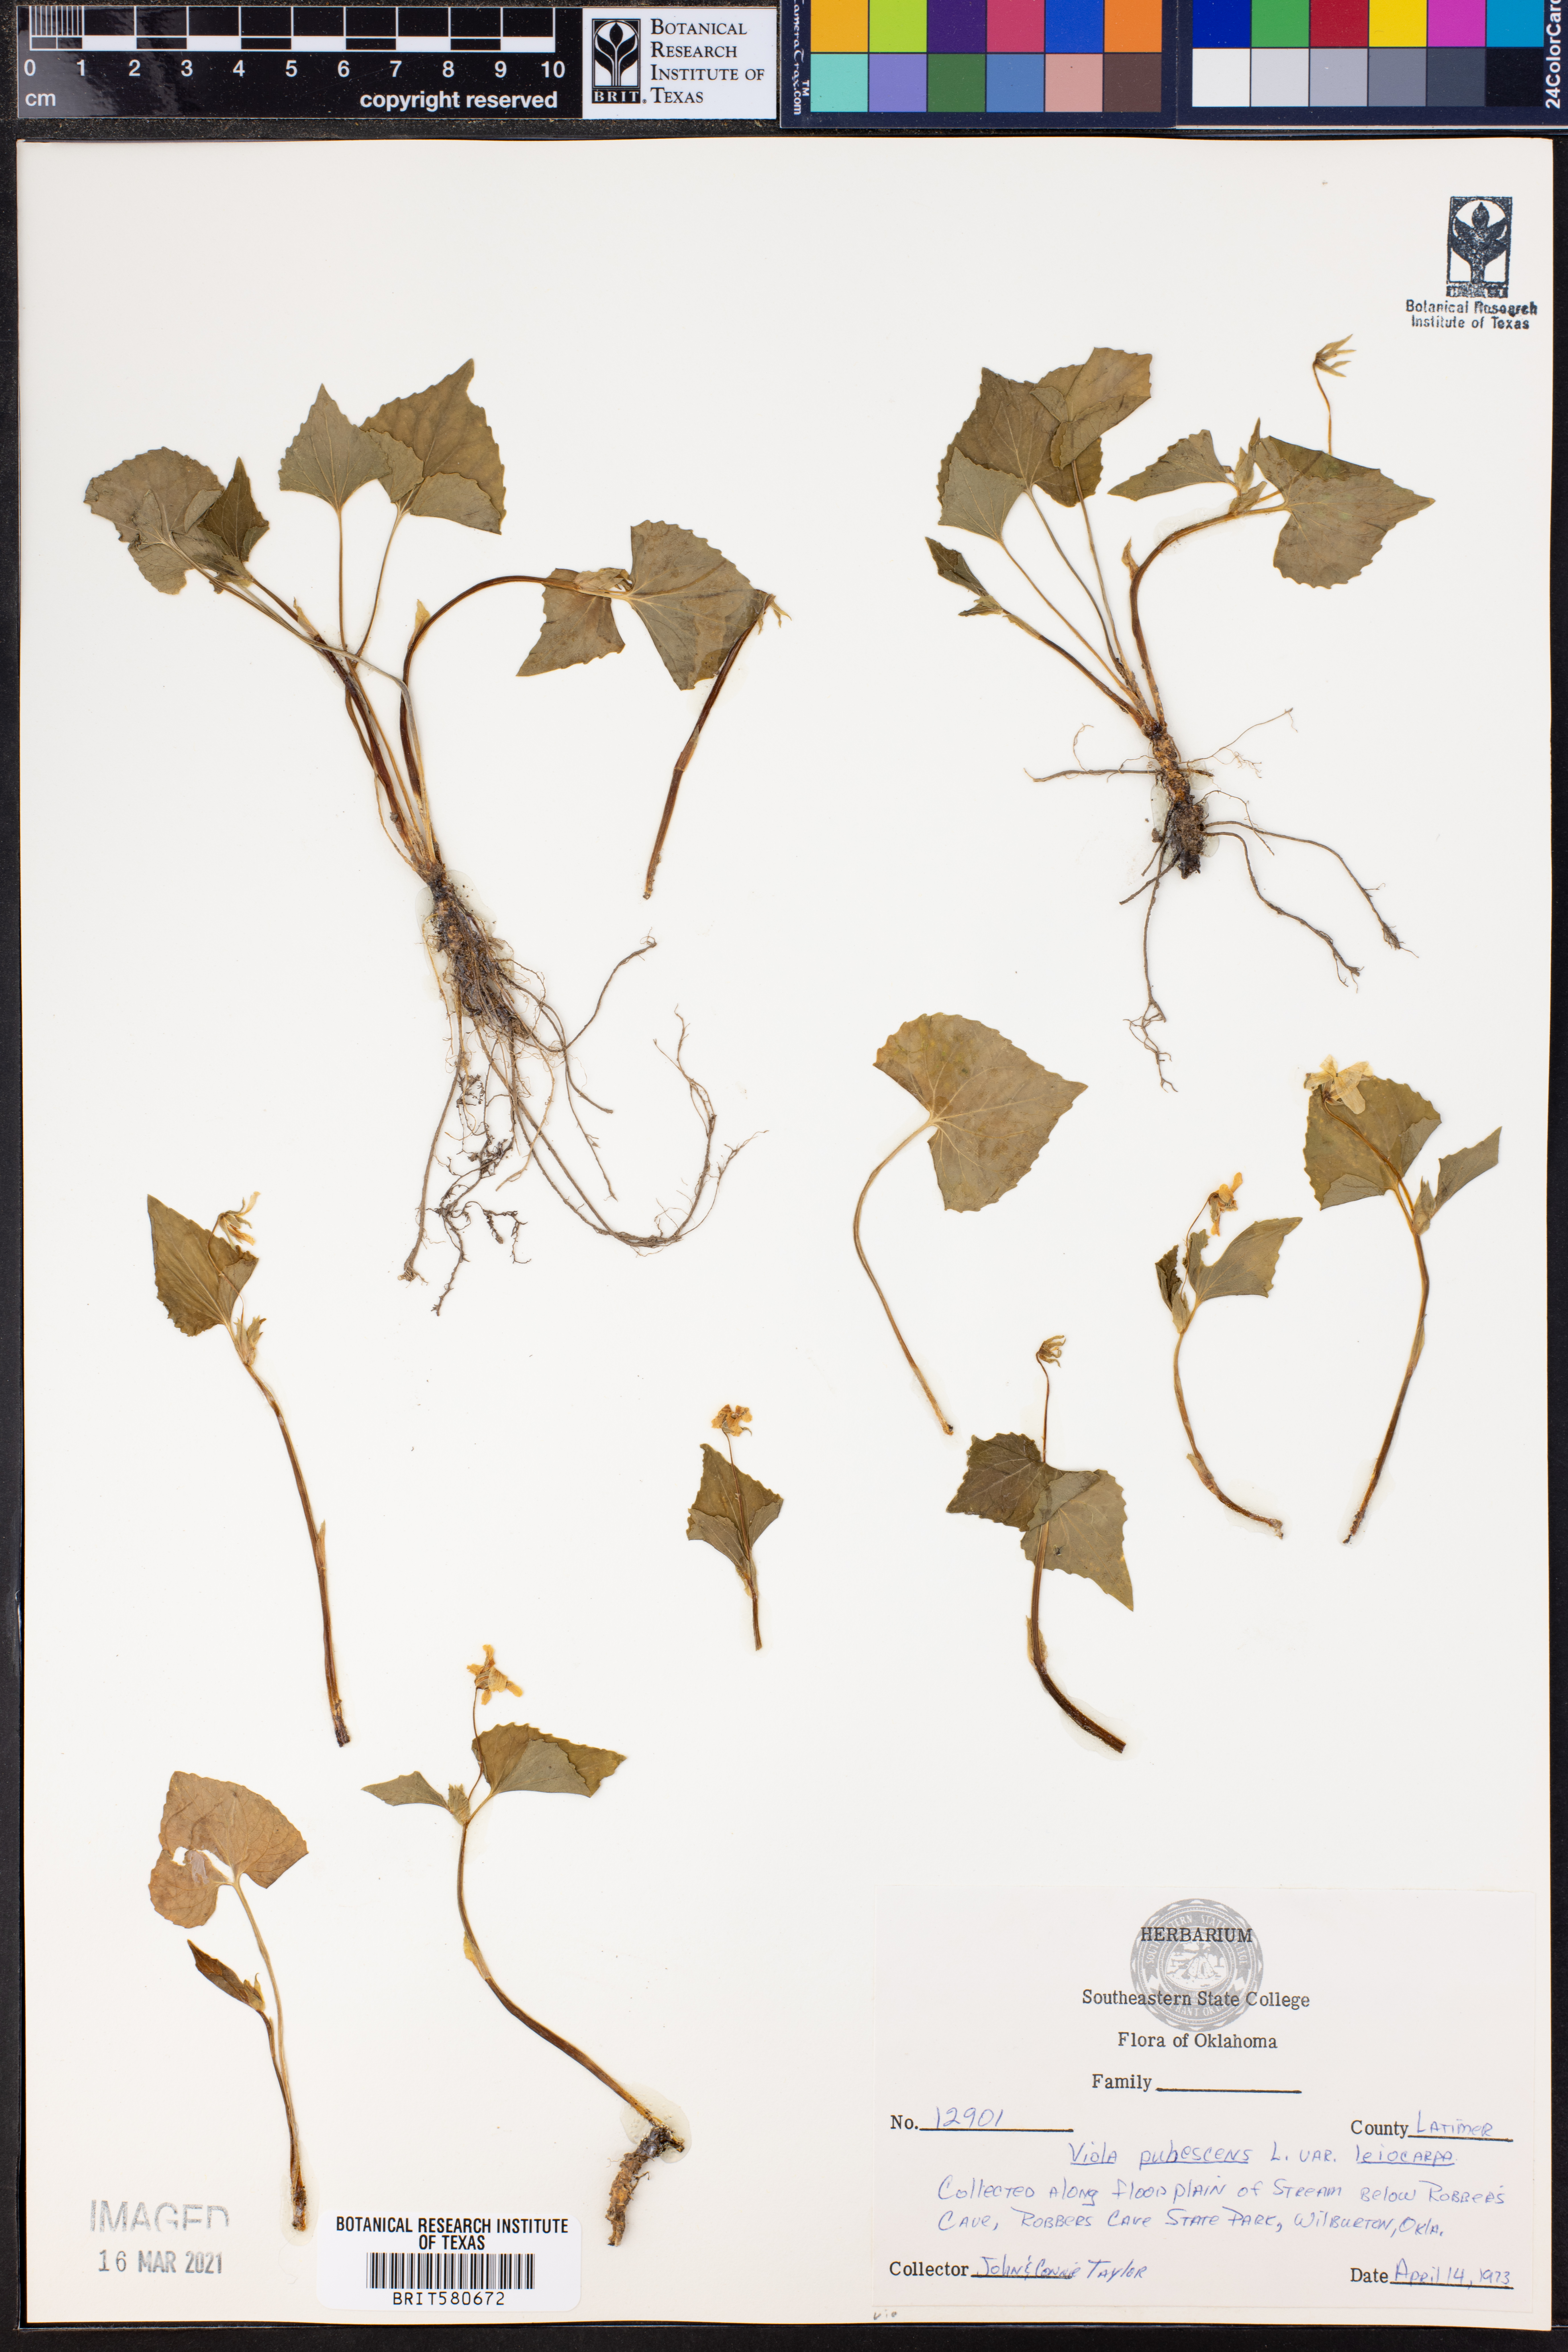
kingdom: Plantae
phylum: Tracheophyta
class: Magnoliopsida
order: Malpighiales
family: Violaceae
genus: Viola
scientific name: Viola eriocarpa
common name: Smooth yellow violet
